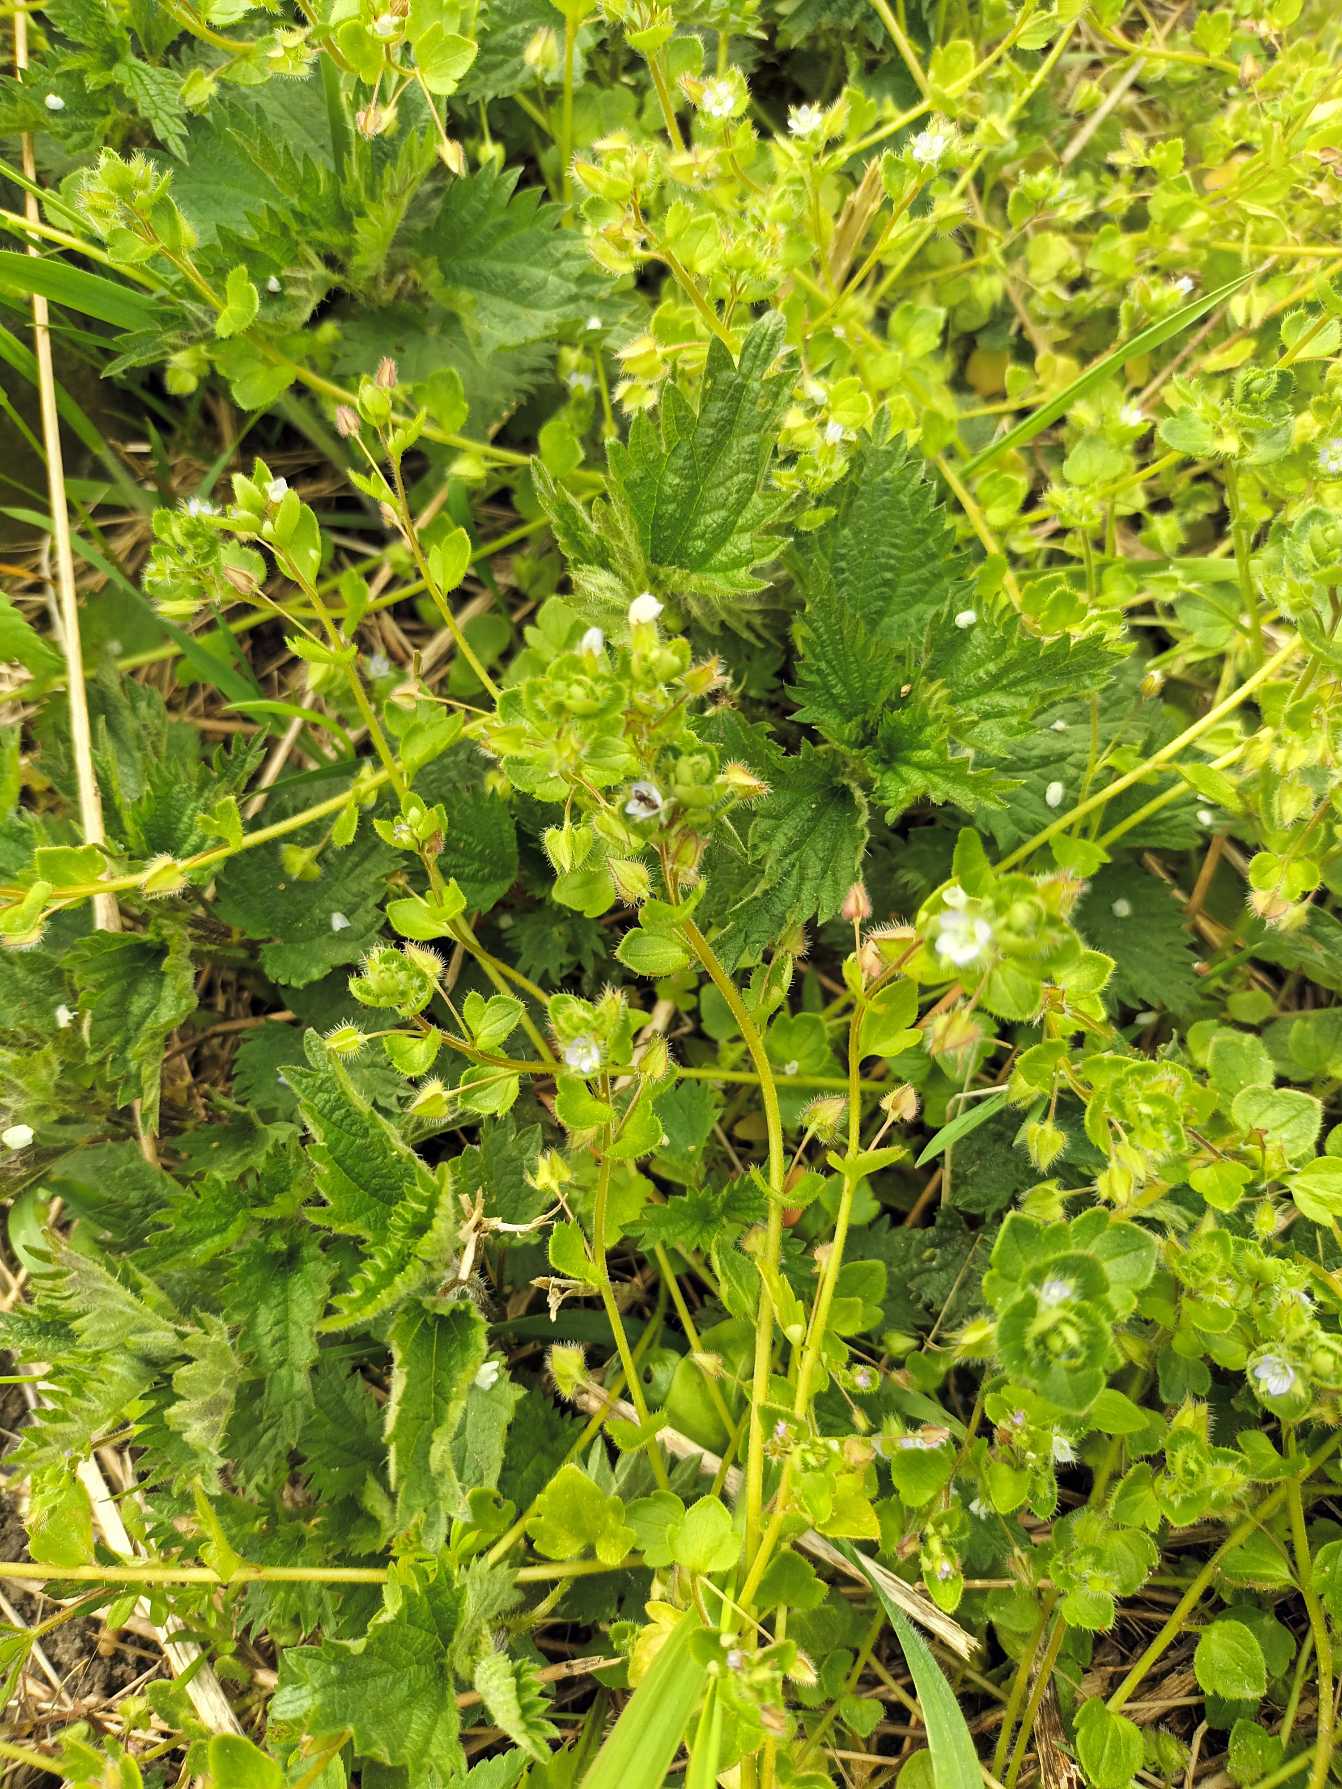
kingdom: Plantae
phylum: Tracheophyta
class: Magnoliopsida
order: Lamiales
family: Plantaginaceae
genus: Veronica
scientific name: Veronica sublobata
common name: Krat-ærenpris
